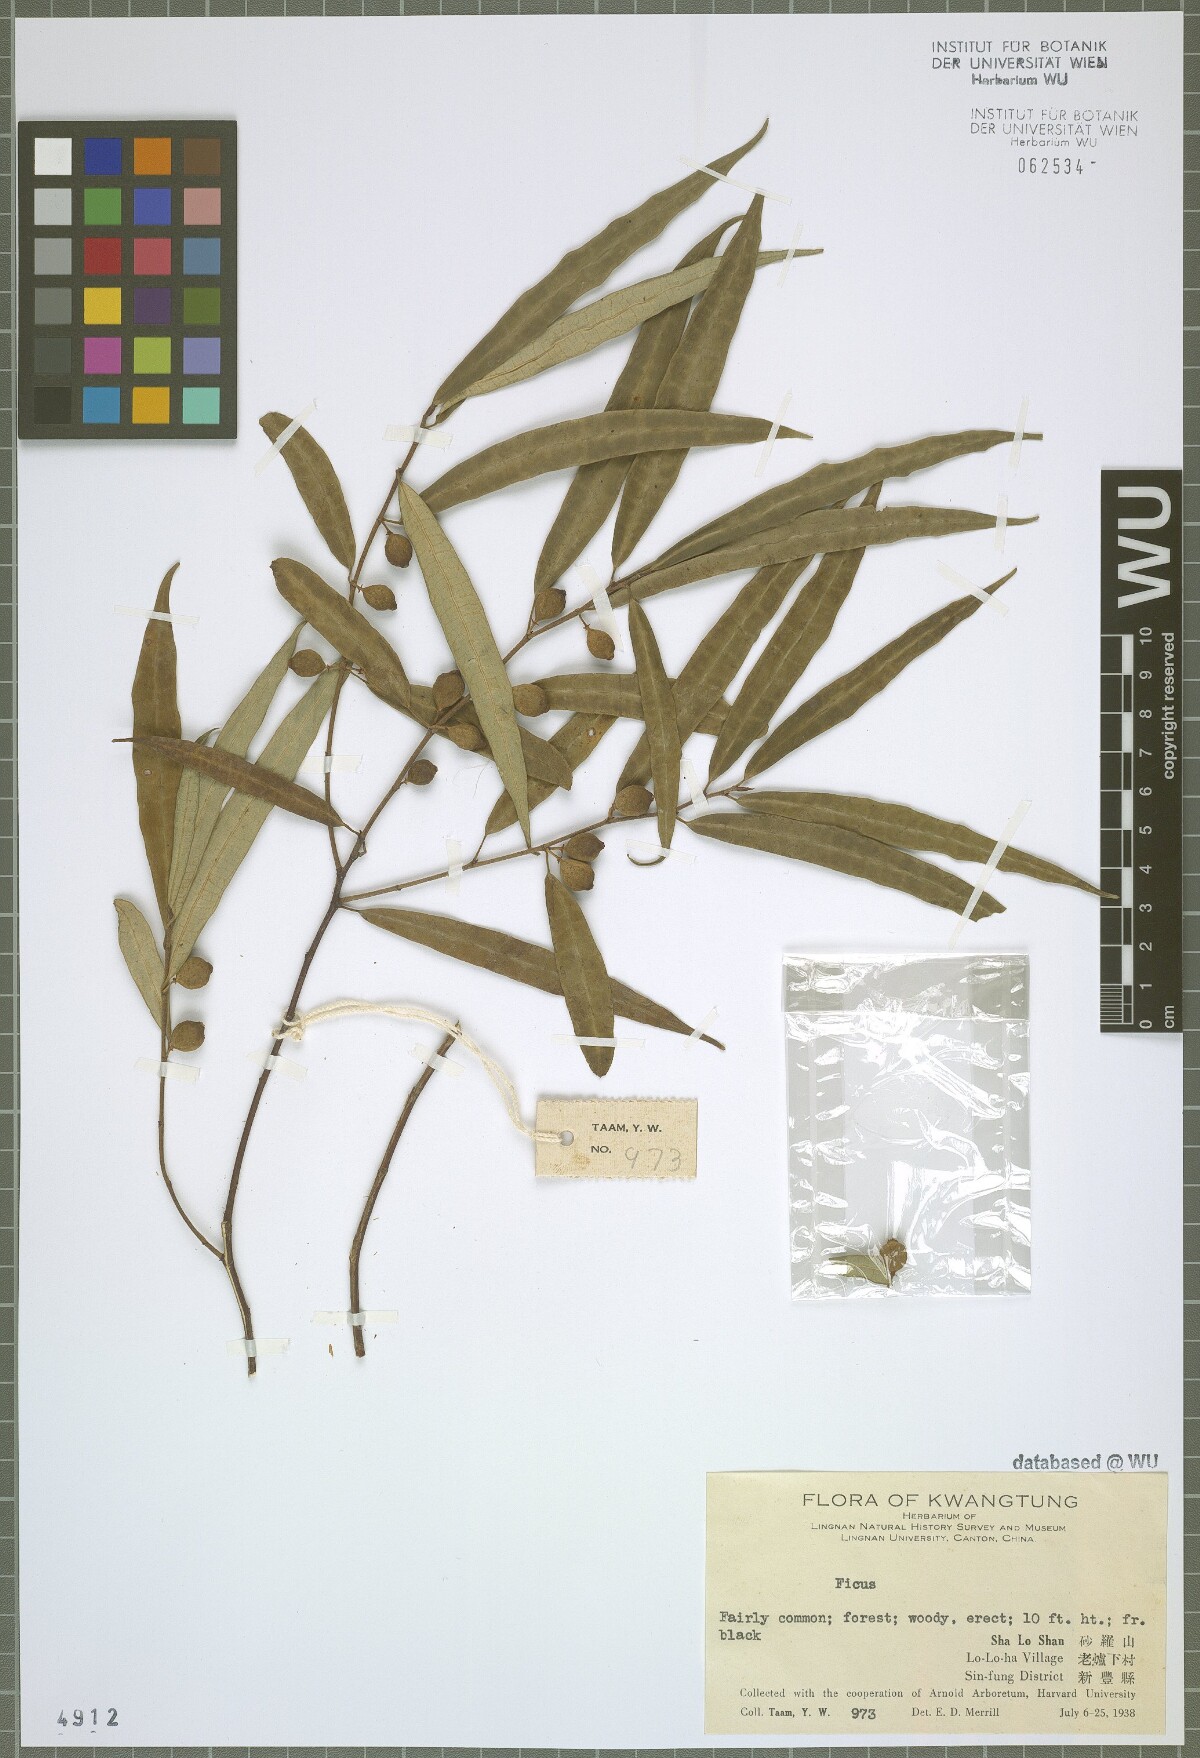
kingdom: Plantae
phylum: Tracheophyta
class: Magnoliopsida
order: Rosales
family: Moraceae
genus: Ficus
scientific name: Ficus
